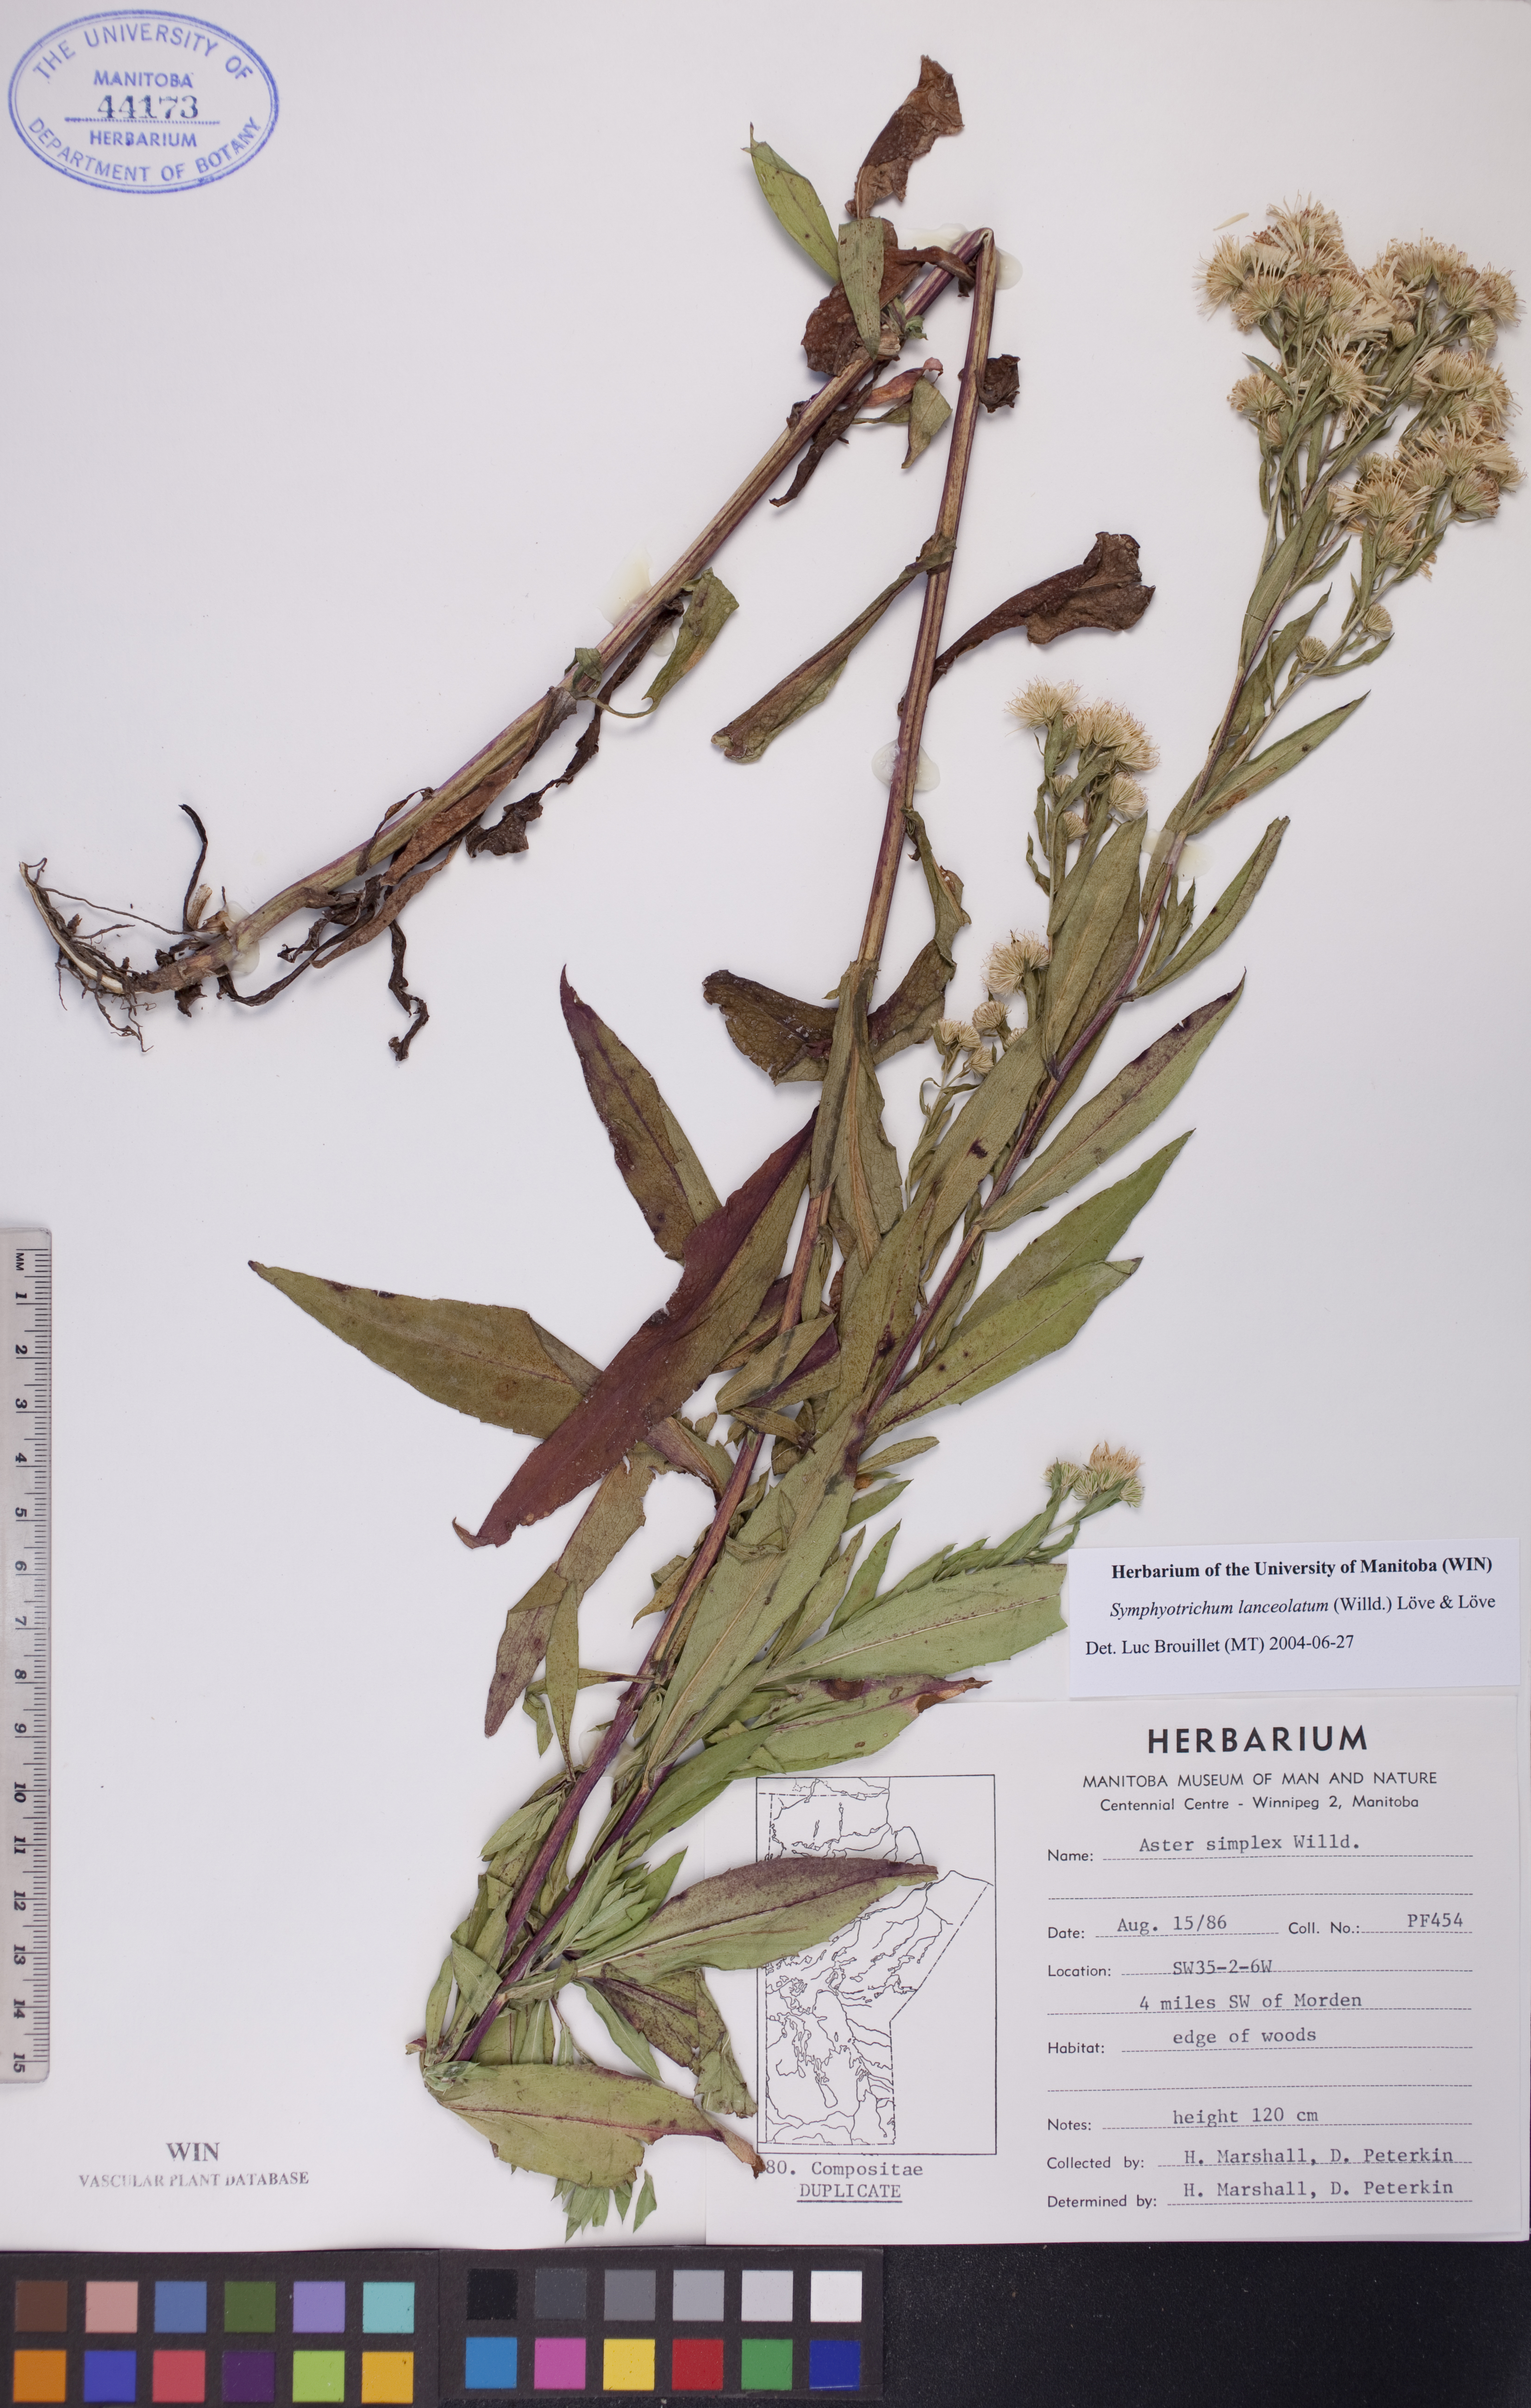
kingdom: Plantae
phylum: Tracheophyta
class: Magnoliopsida
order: Asterales
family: Asteraceae
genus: Symphyotrichum
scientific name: Symphyotrichum lanceolatum
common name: Panicled aster
